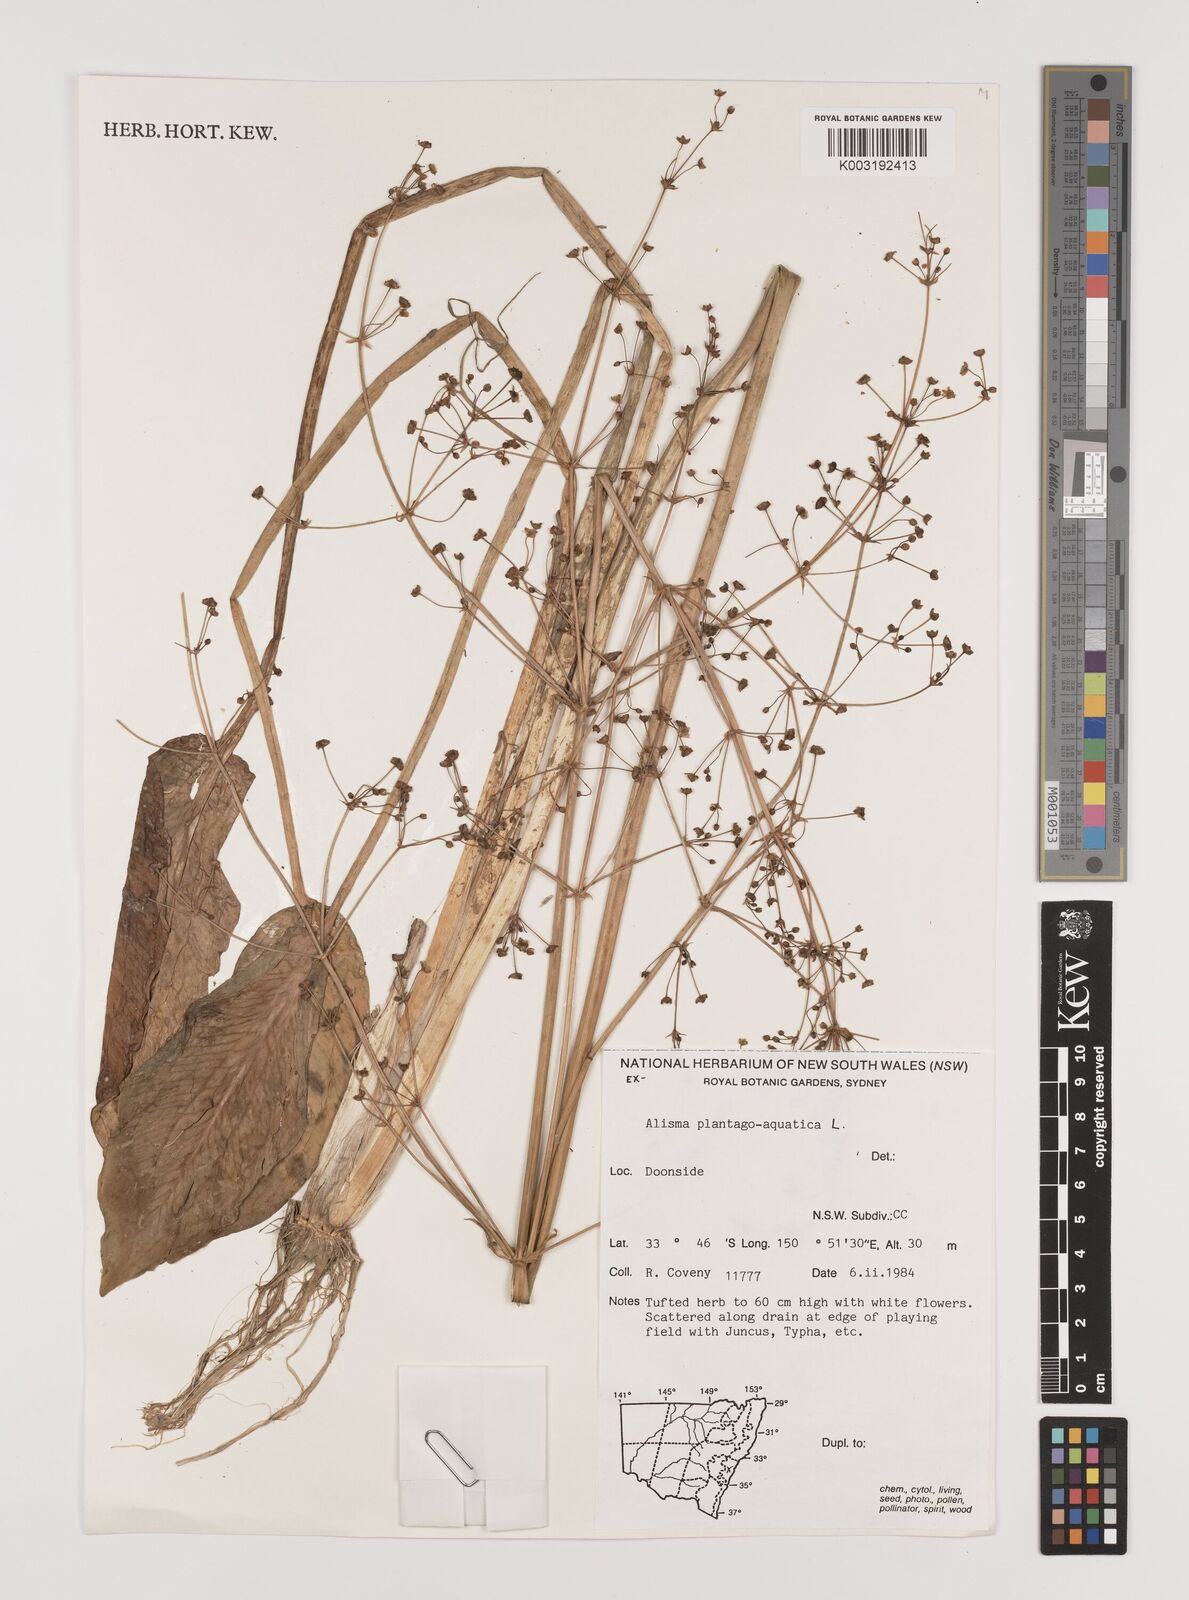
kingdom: Plantae
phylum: Tracheophyta
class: Liliopsida
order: Alismatales
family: Alismataceae
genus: Alisma
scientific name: Alisma plantago-aquatica
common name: Water-plantain
